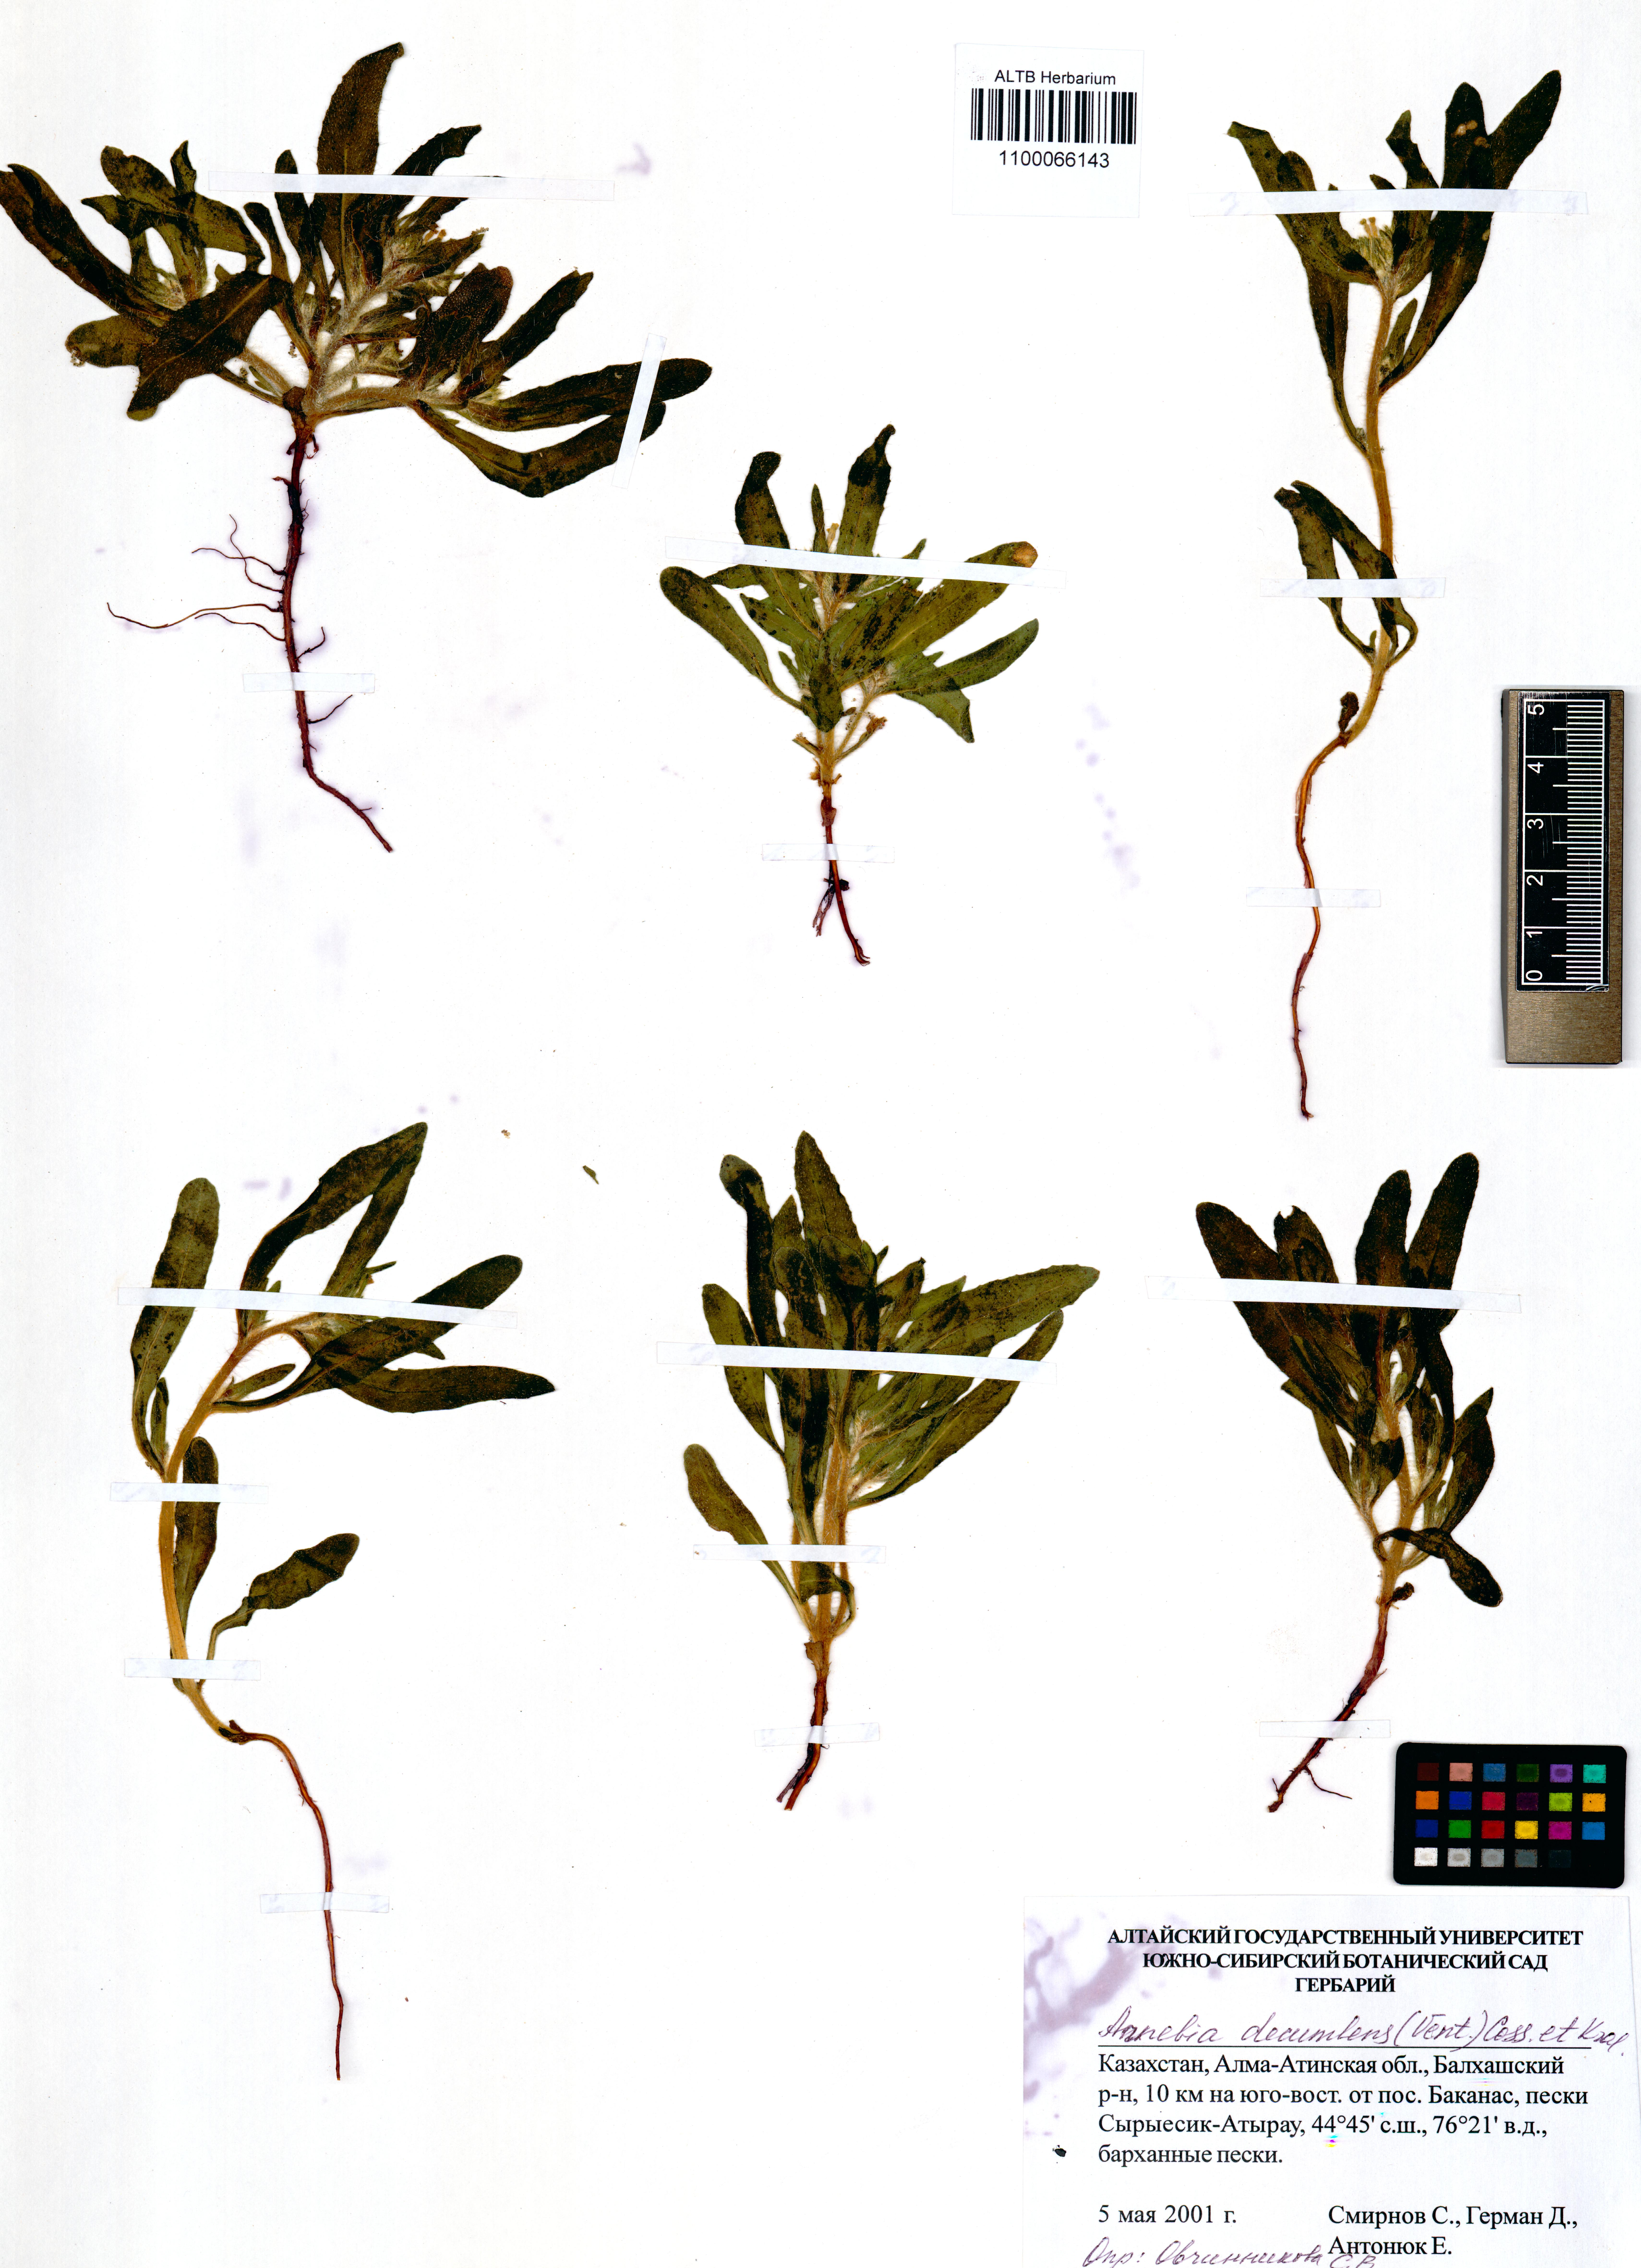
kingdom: Plantae
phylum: Tracheophyta
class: Magnoliopsida
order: Boraginales
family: Boraginaceae
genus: Arnebia
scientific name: Arnebia decumbens
